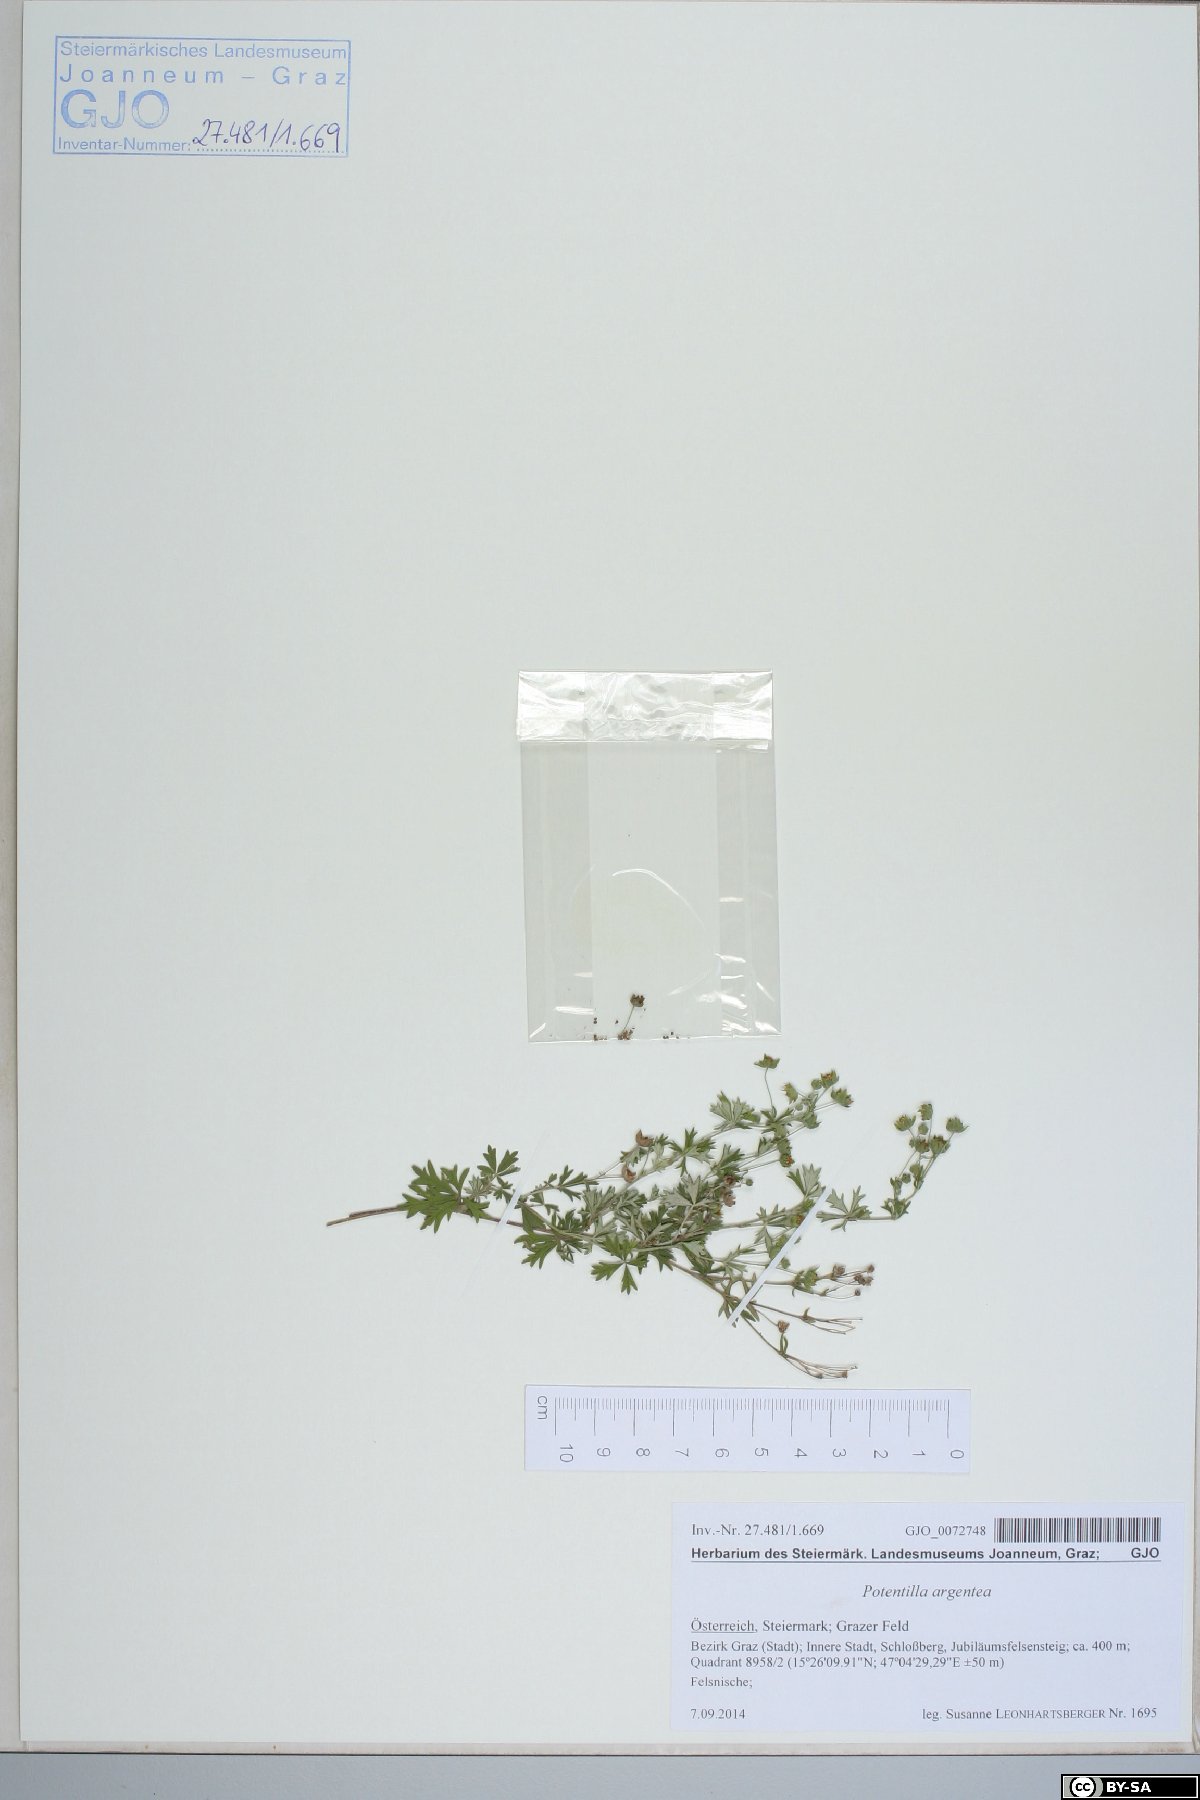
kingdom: Plantae
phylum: Tracheophyta
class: Magnoliopsida
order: Rosales
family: Rosaceae
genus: Potentilla
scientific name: Potentilla argentea
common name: Hoary cinquefoil
